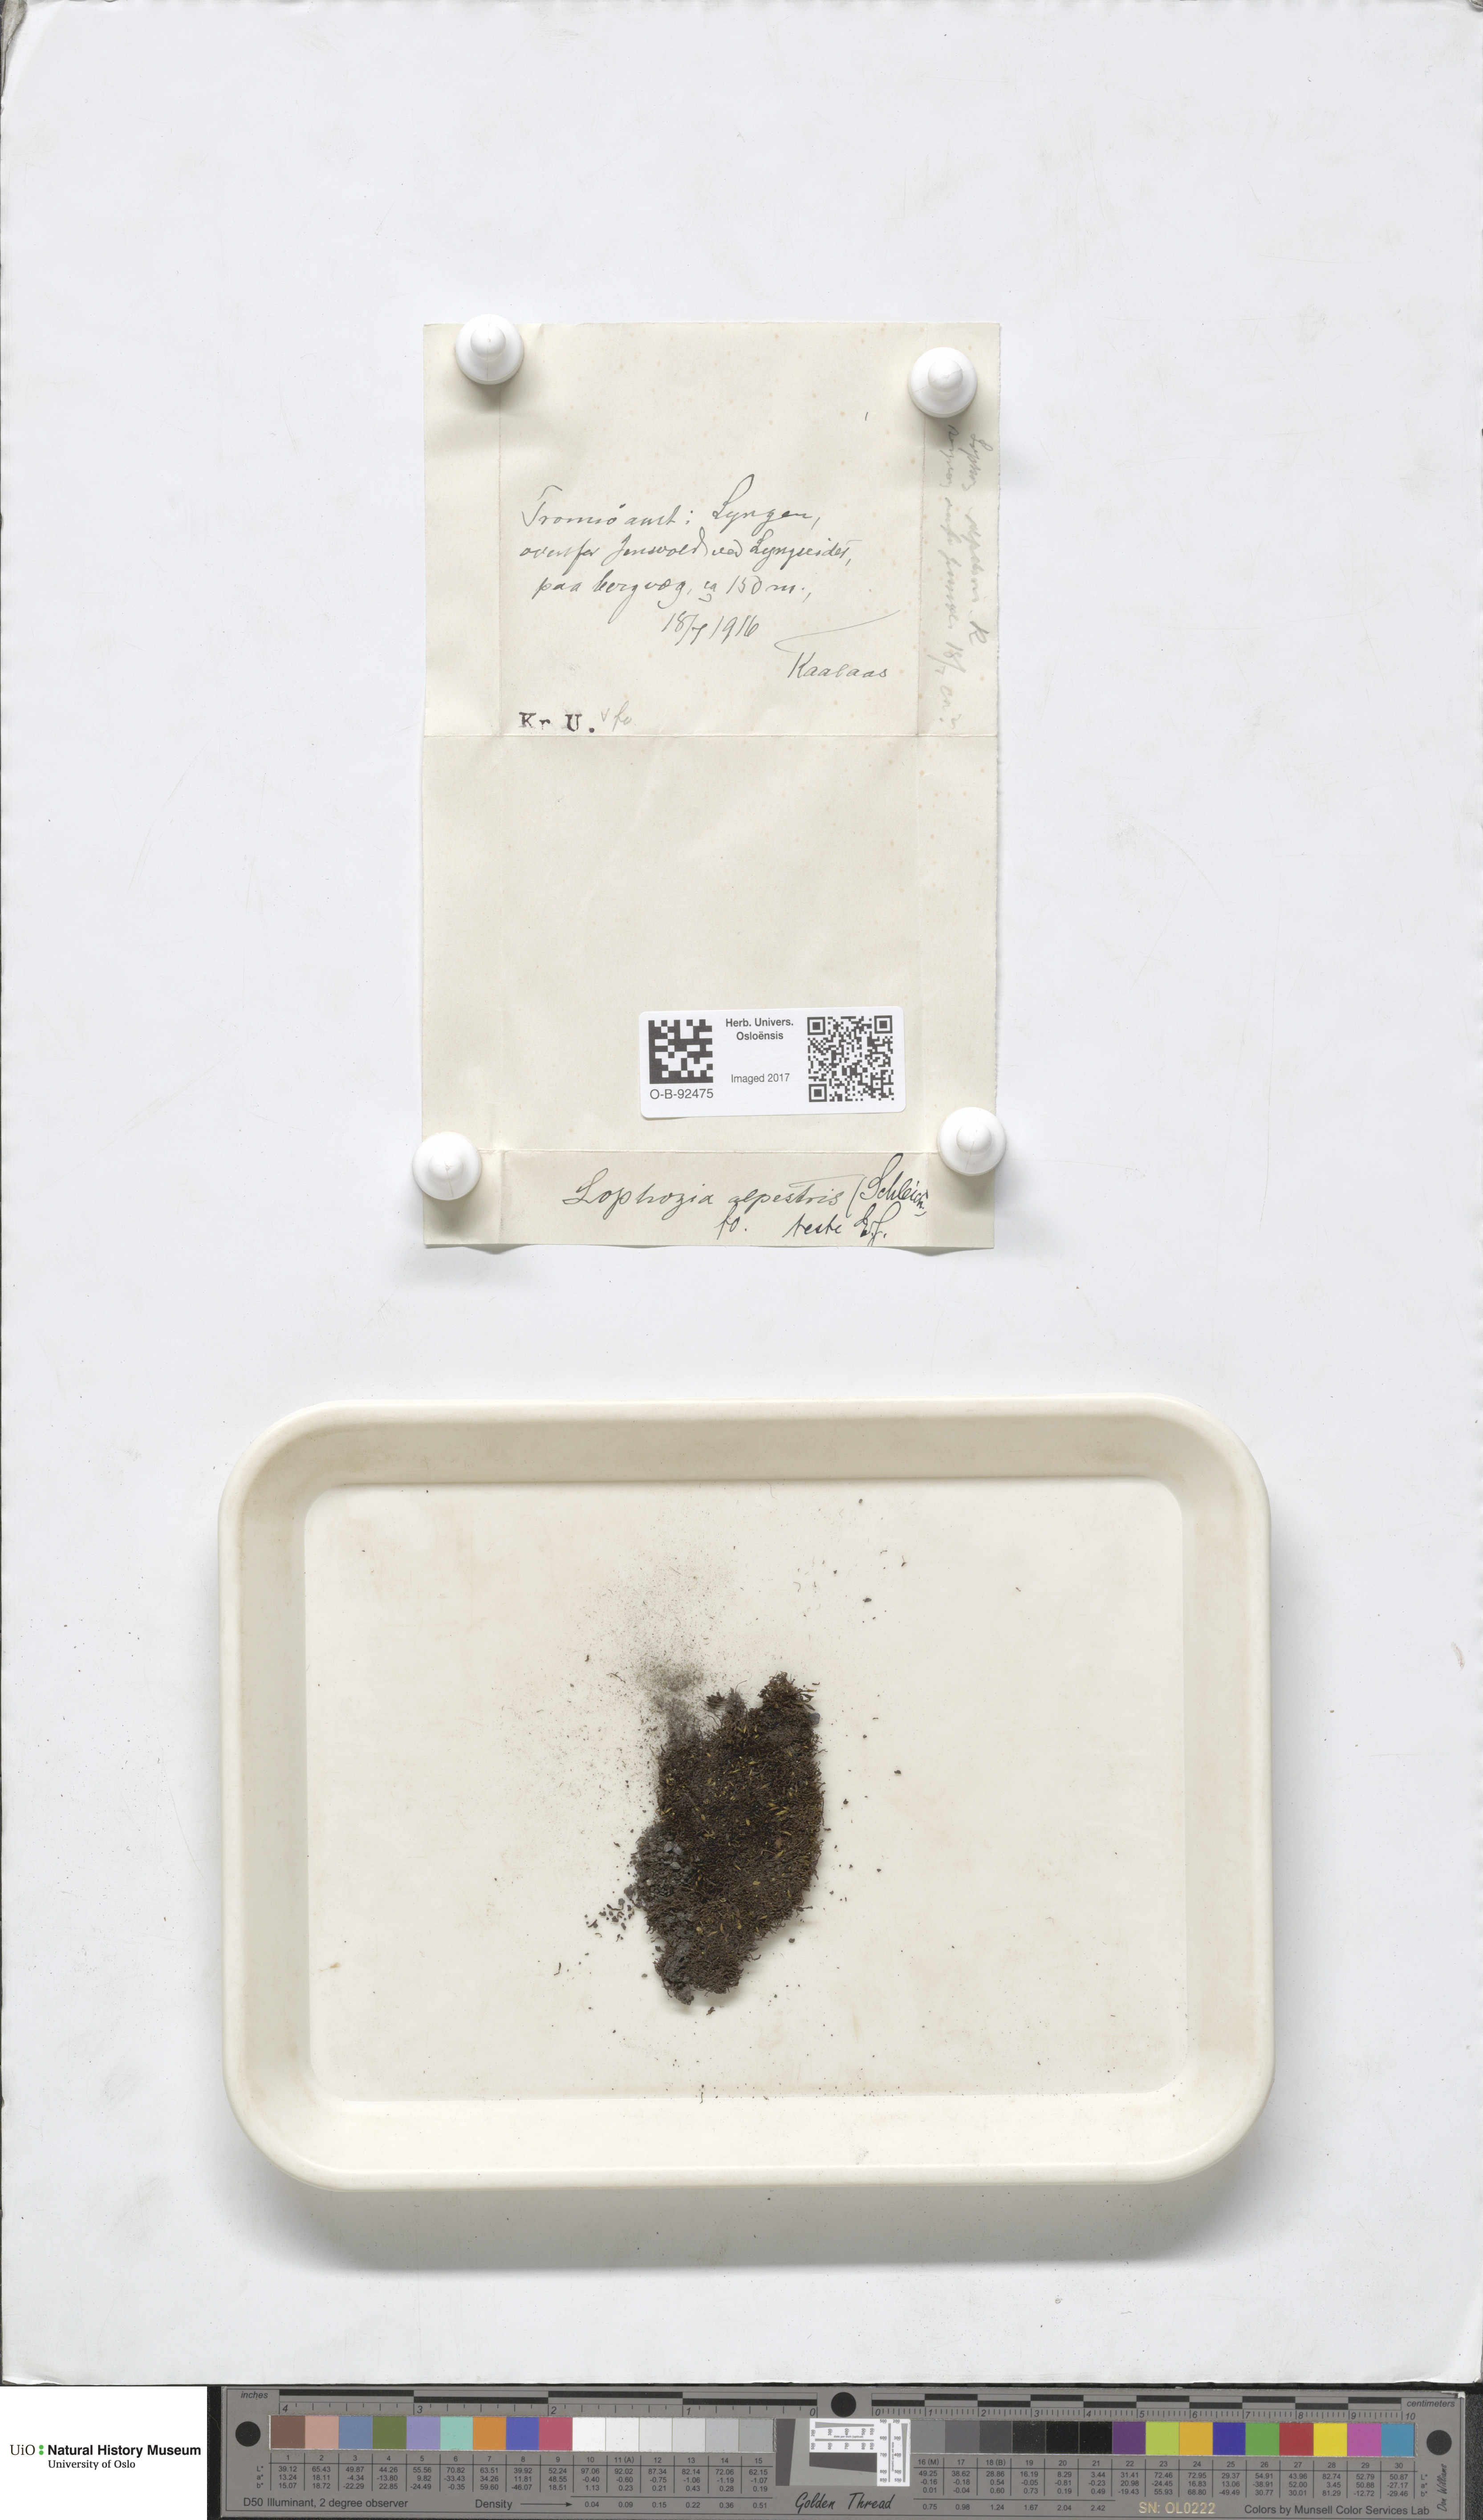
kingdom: Plantae
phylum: Marchantiophyta
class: Jungermanniopsida
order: Jungermanniales
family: Anastrophyllaceae
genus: Barbilophozia
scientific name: Barbilophozia sudetica
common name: Hill notchwort
